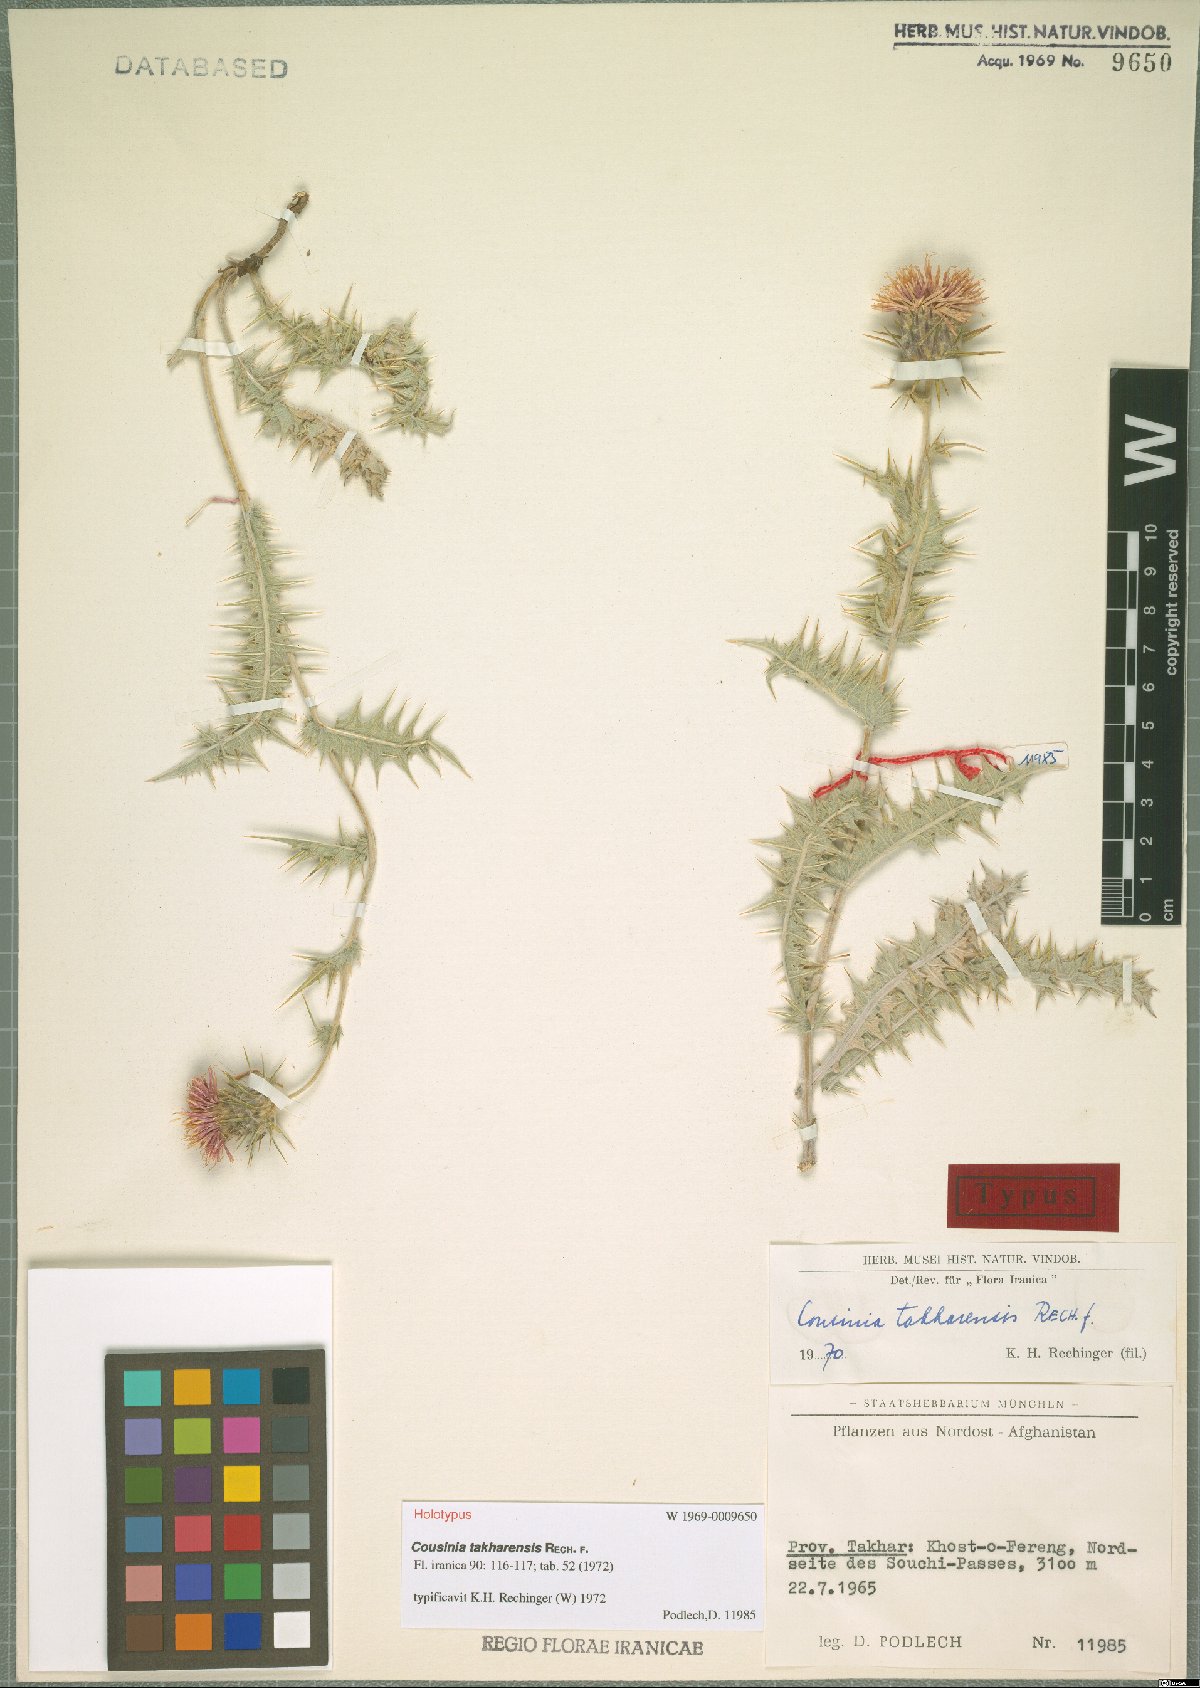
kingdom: Plantae
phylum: Tracheophyta
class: Magnoliopsida
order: Asterales
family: Asteraceae
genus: Cousinia
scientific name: Cousinia takharensis
